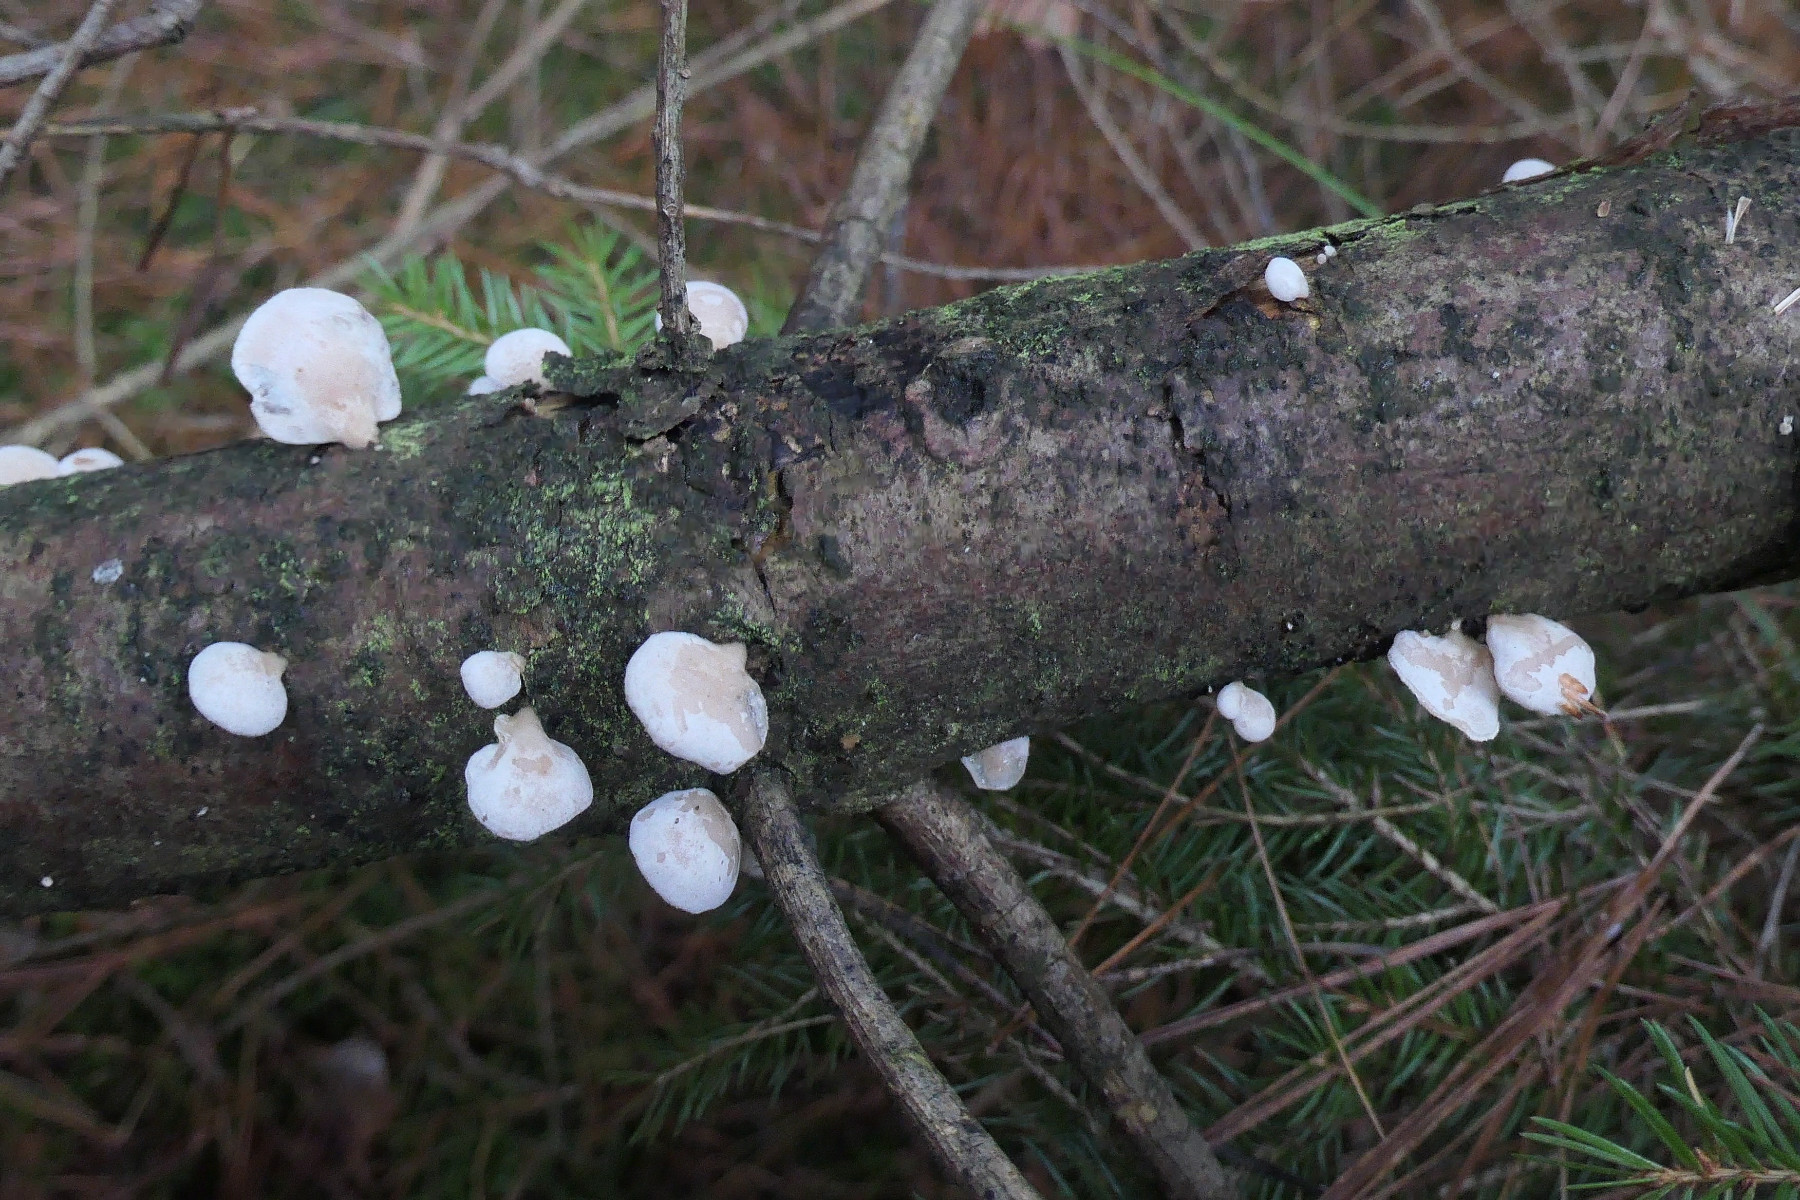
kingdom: Fungi
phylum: Basidiomycota
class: Agaricomycetes
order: Agaricales
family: Crepidotaceae
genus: Crepidotus
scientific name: Crepidotus mollis
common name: blød muslingesvamp
